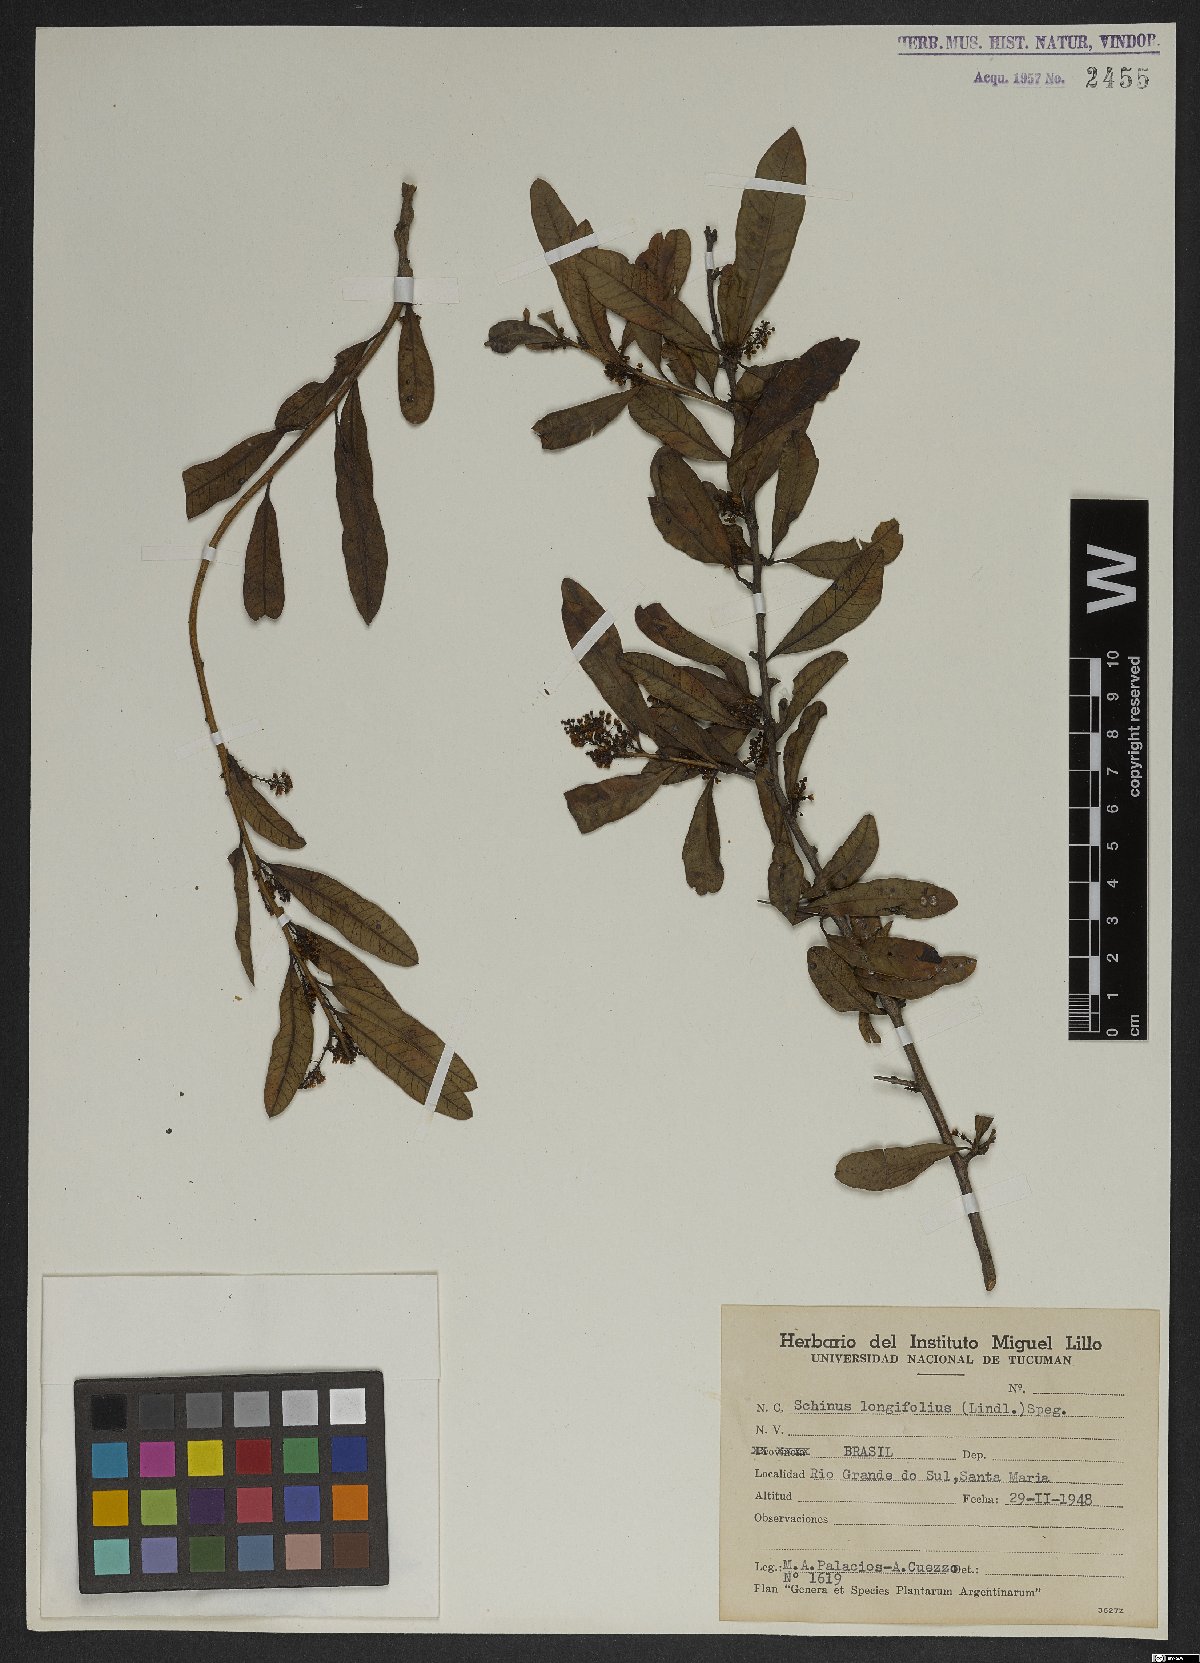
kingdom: Plantae
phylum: Tracheophyta
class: Magnoliopsida
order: Sapindales
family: Anacardiaceae
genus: Schinus
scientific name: Schinus longifolia
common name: Longleaf peppertree
